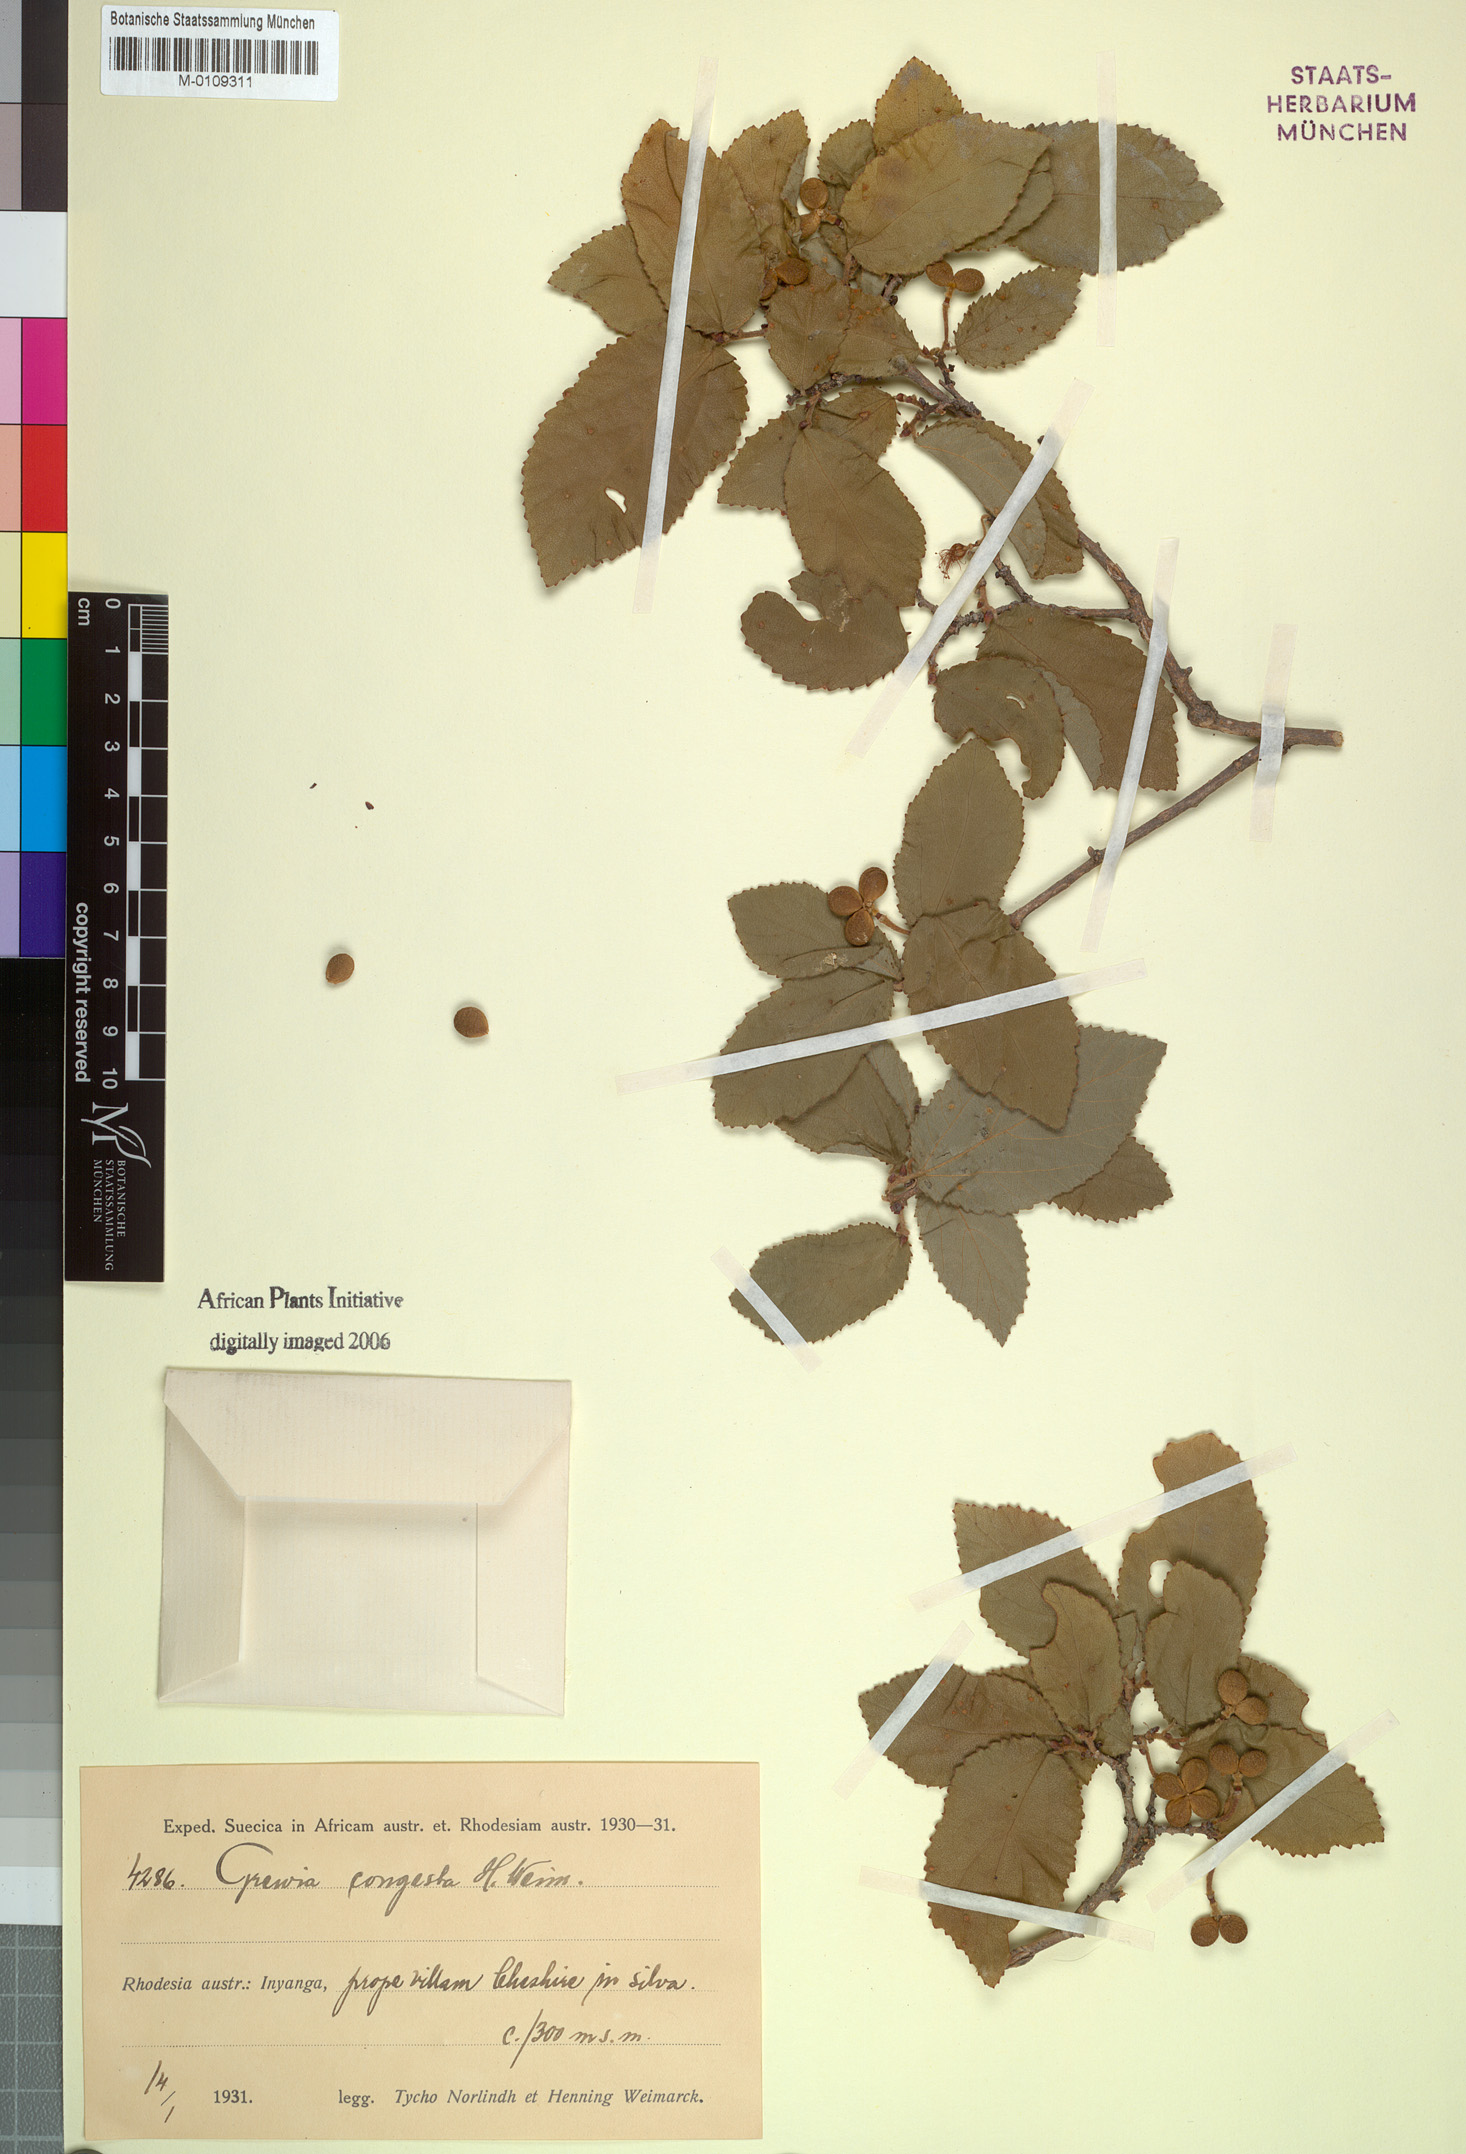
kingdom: Plantae
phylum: Tracheophyta
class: Magnoliopsida
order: Malvales
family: Malvaceae
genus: Grewia
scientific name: Grewia praecox
